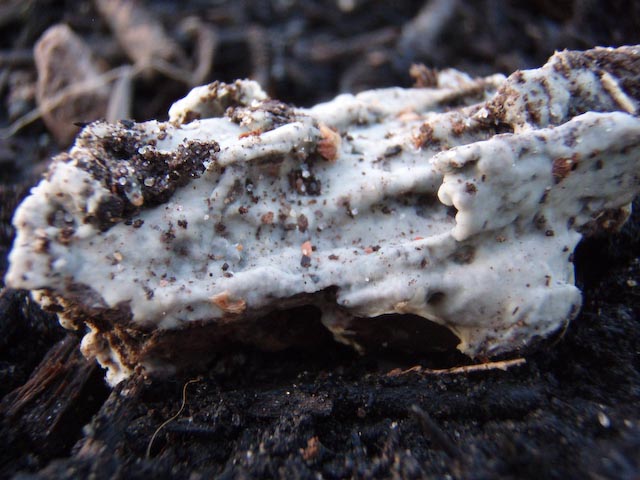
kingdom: Fungi
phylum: Basidiomycota
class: Agaricomycetes
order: Sebacinales
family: Sebacinaceae
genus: Sebacina
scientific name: Sebacina
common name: bævretalg
